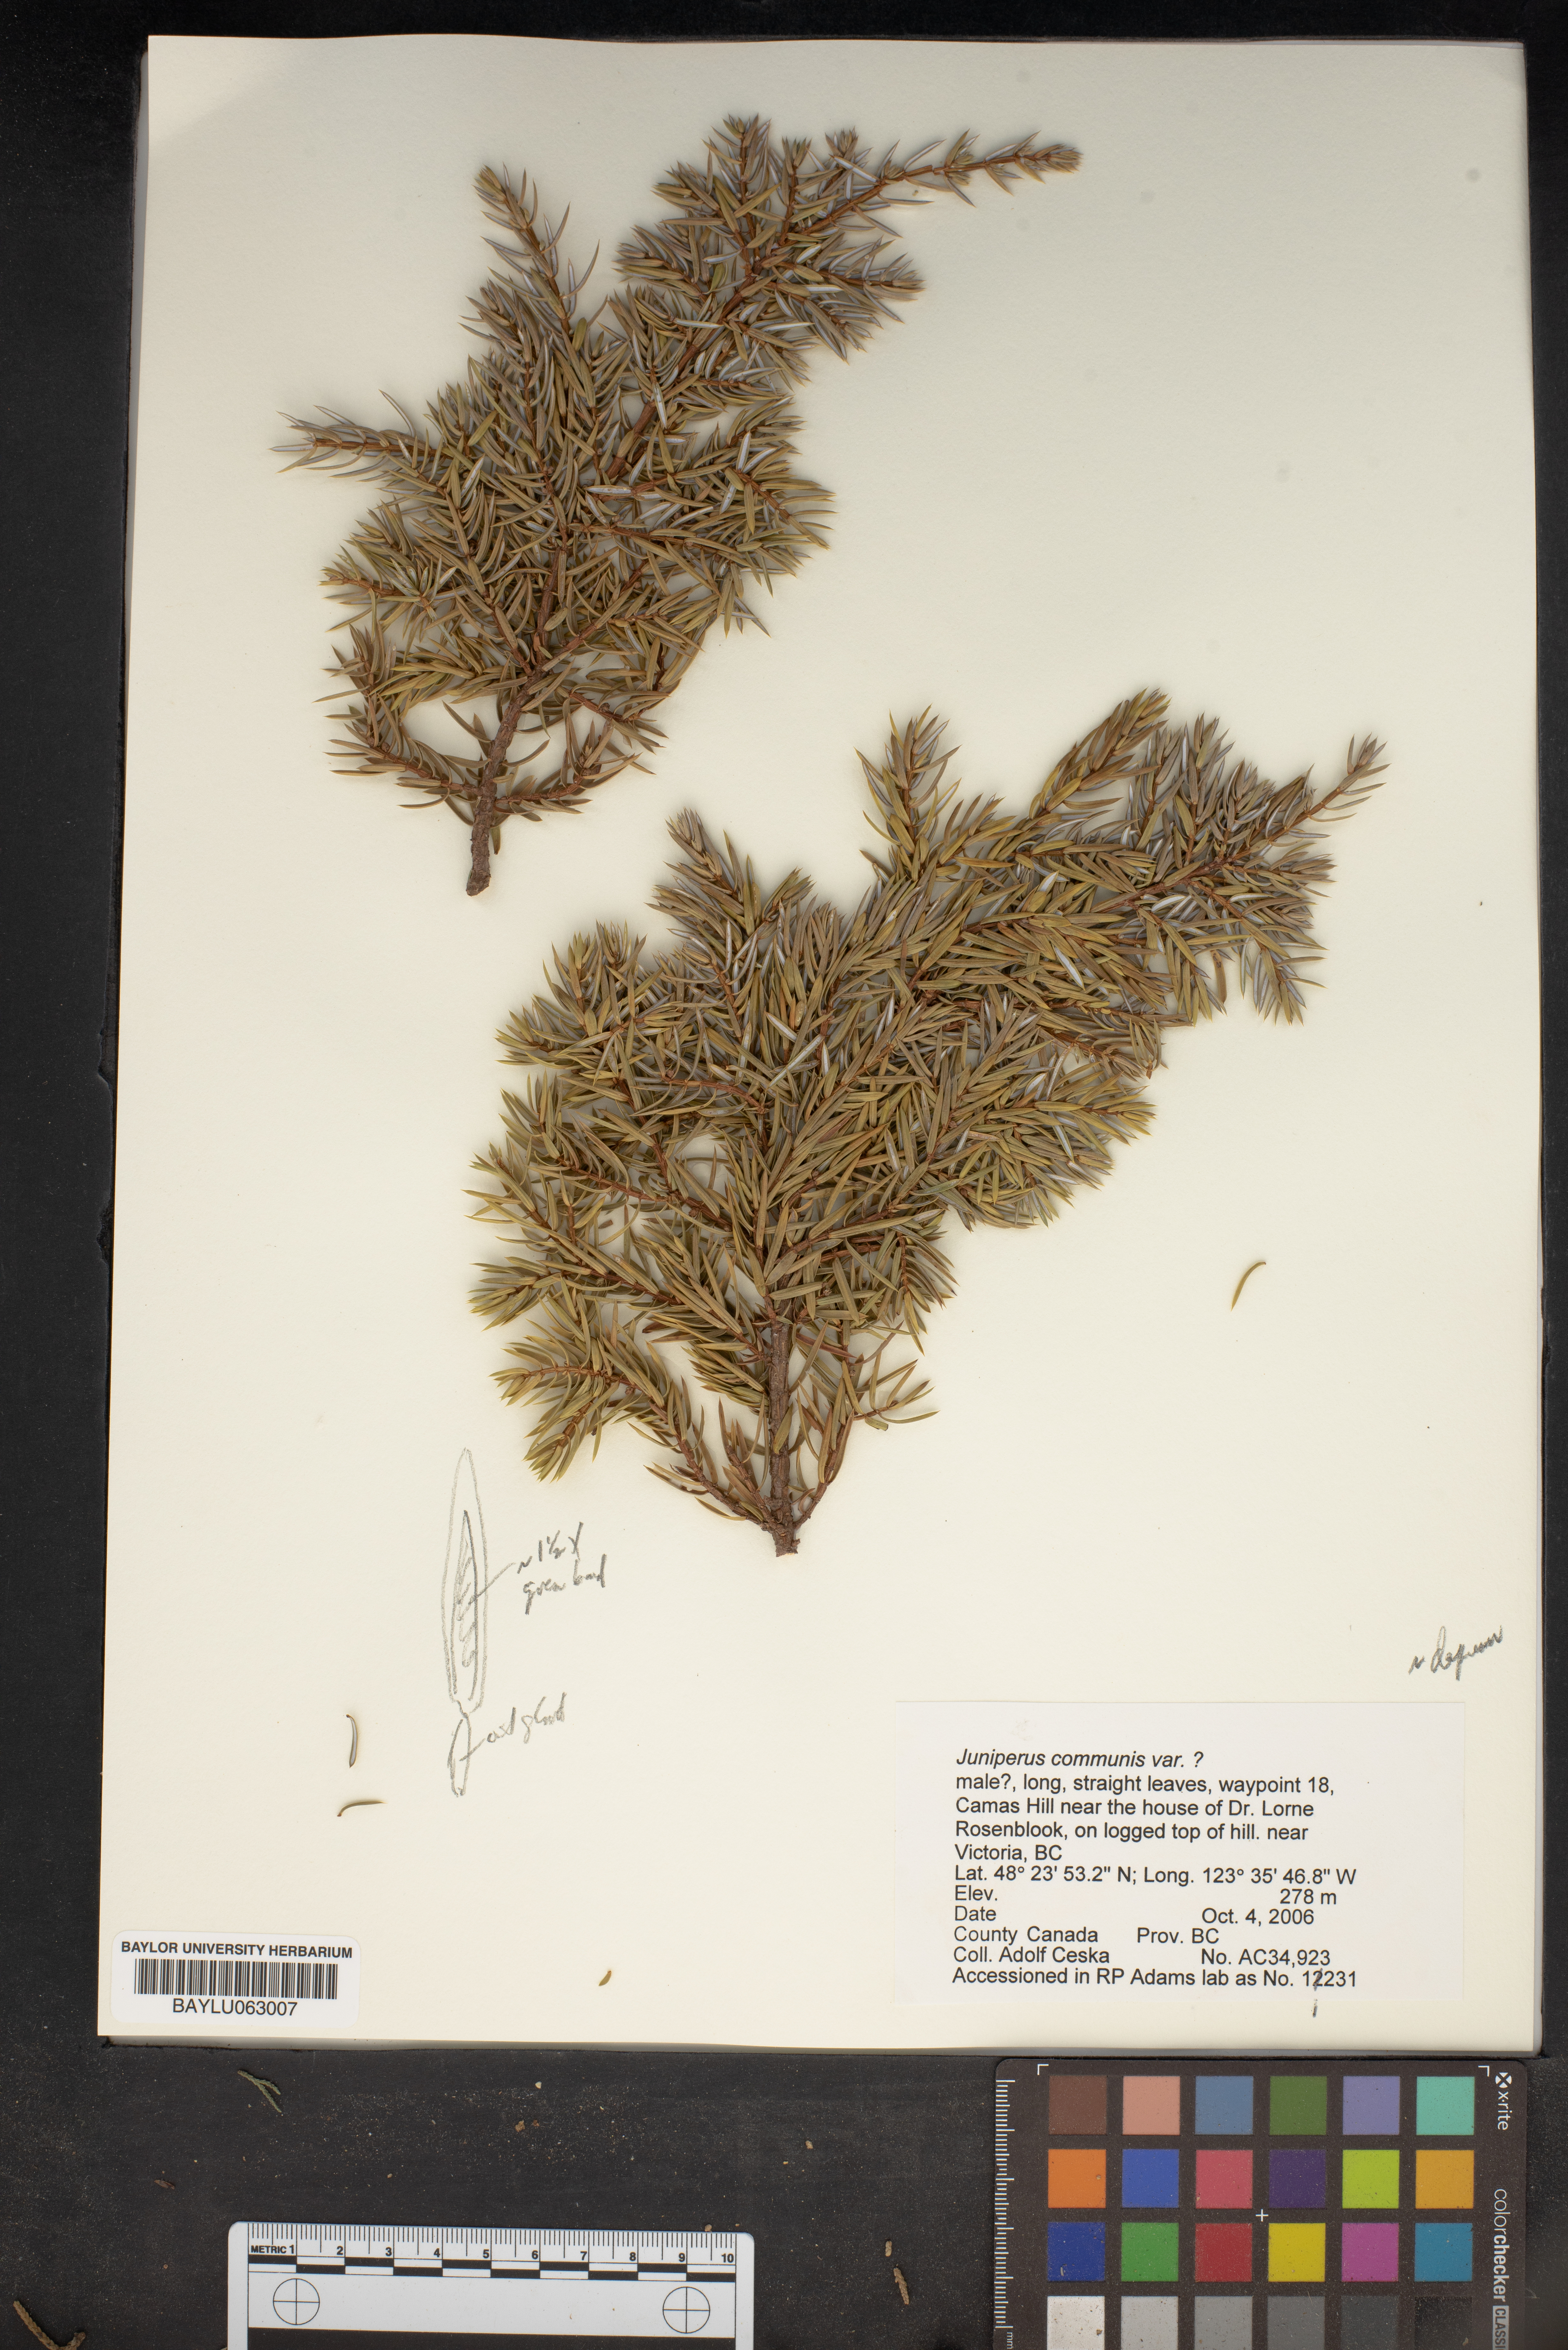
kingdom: Plantae
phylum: Tracheophyta
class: Pinopsida
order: Pinales
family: Cupressaceae
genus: Juniperus
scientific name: Juniperus communis
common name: Common juniper
